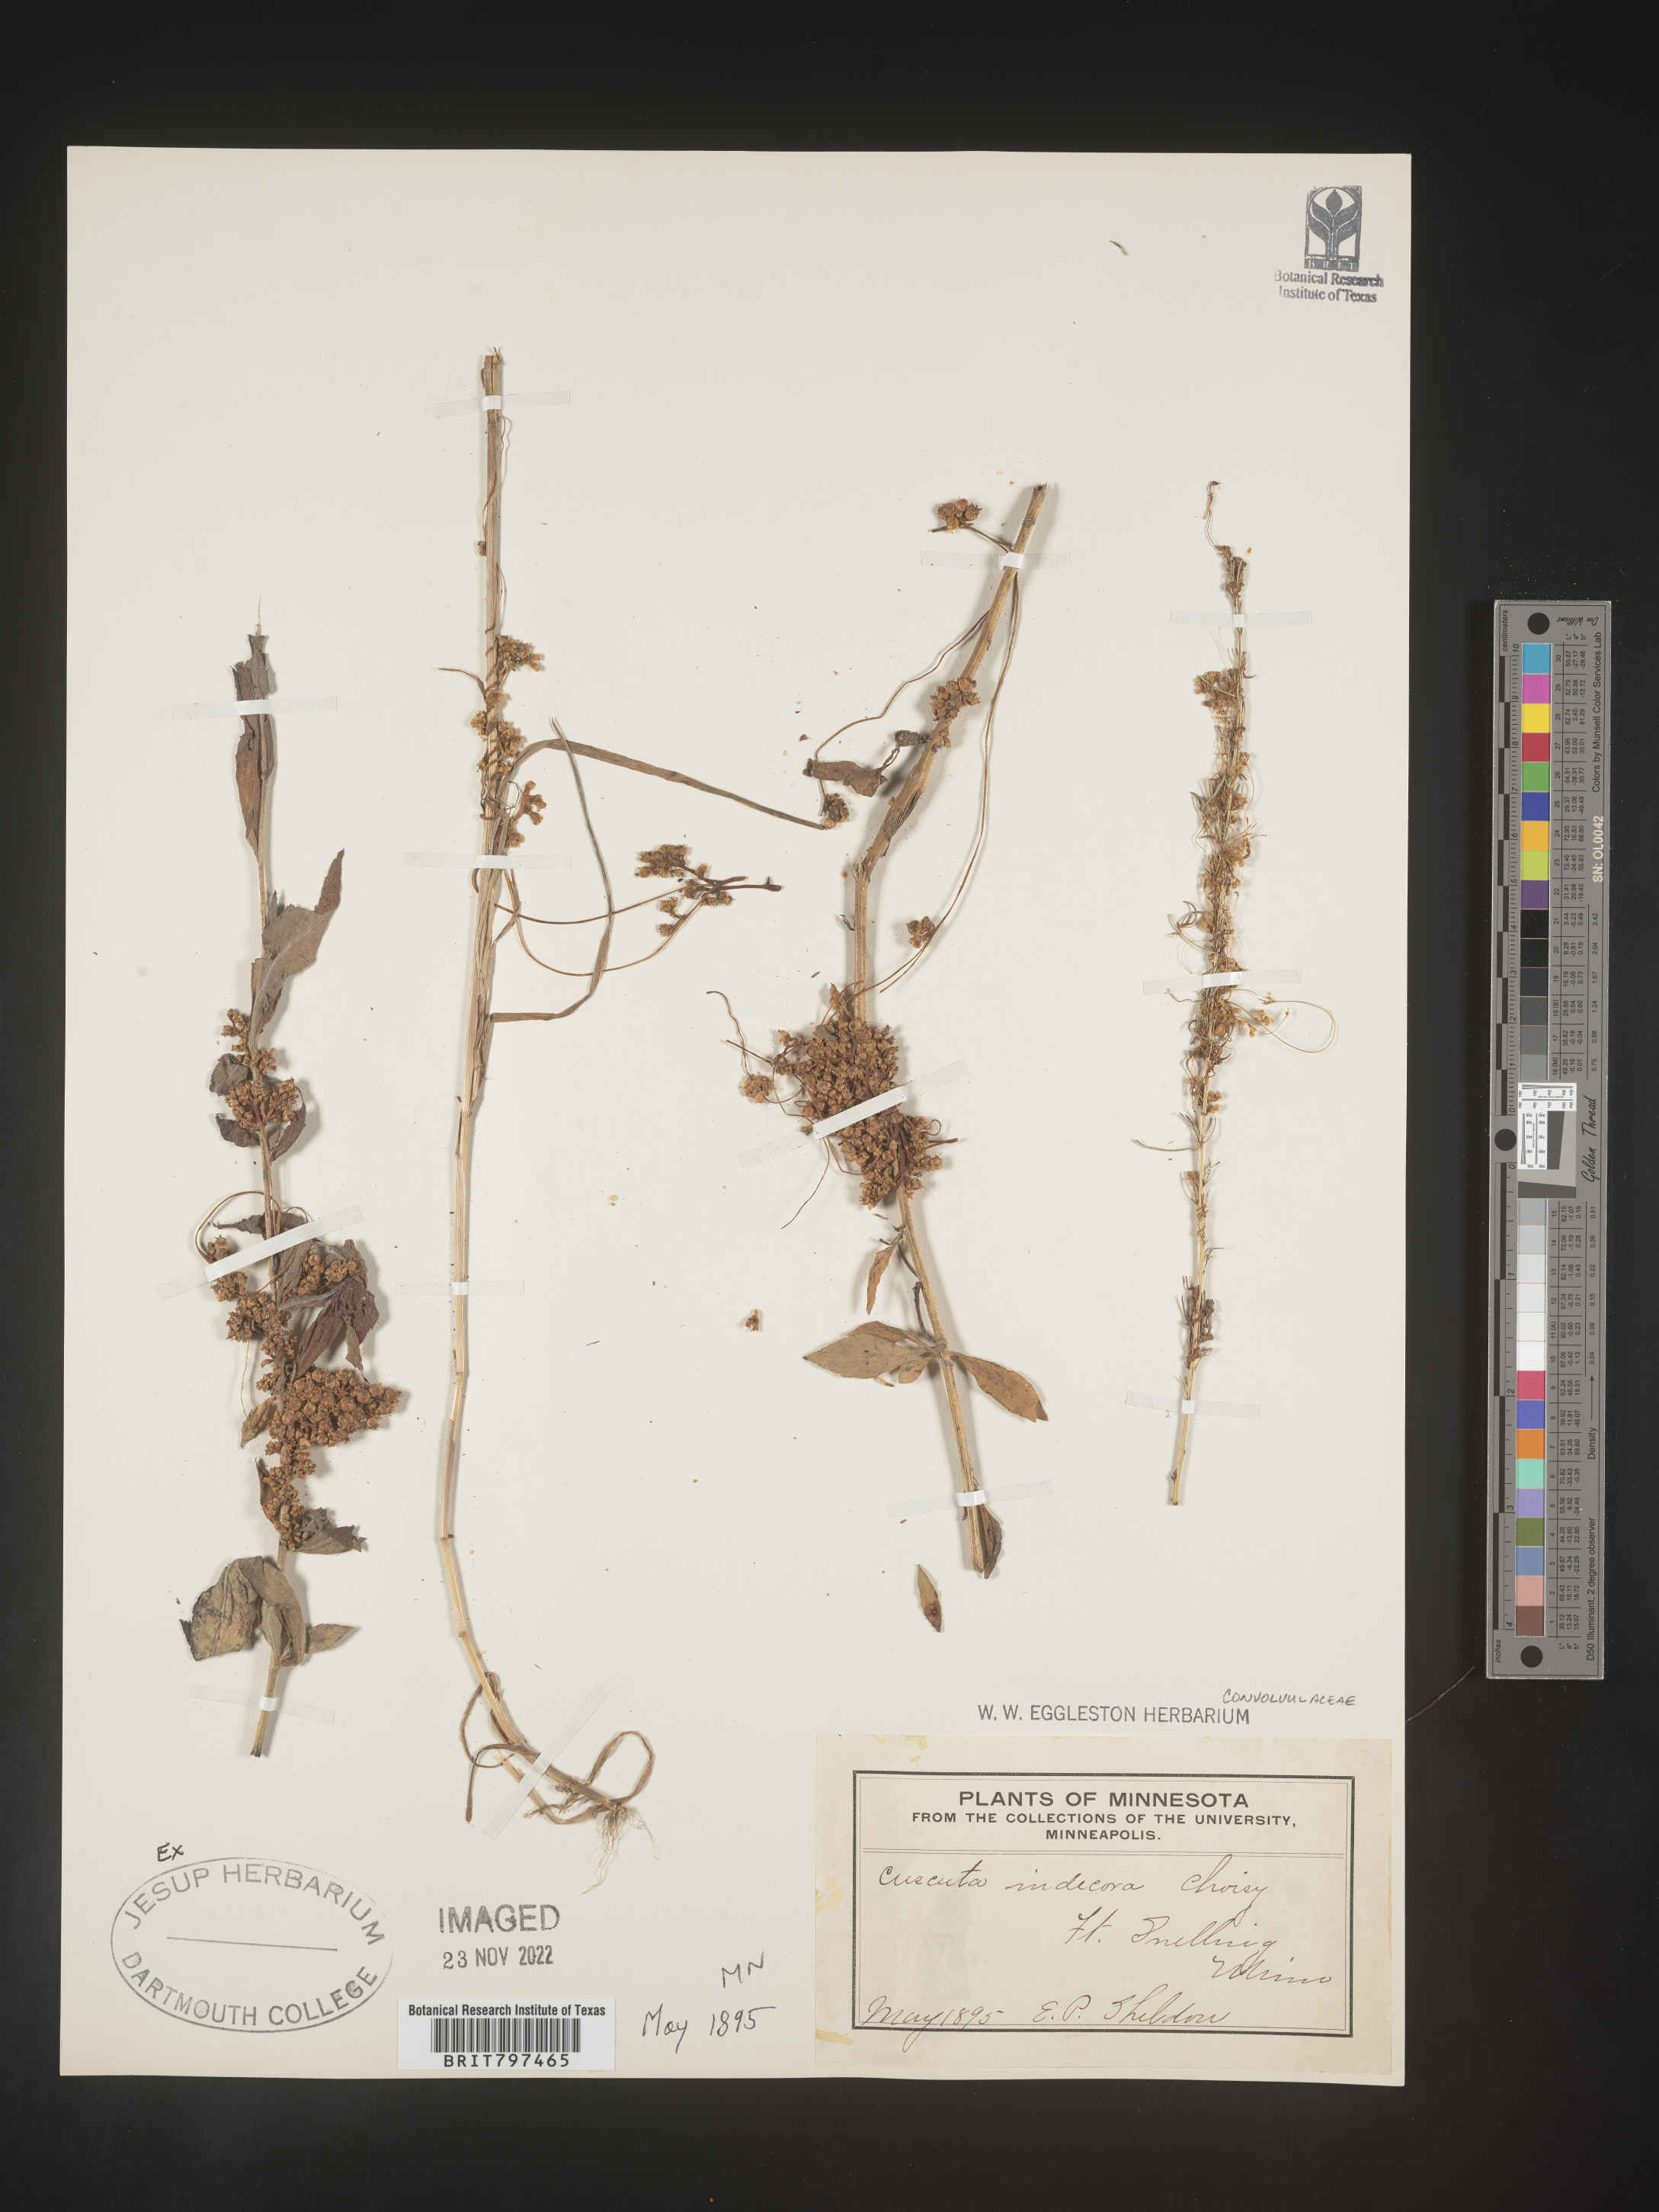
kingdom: Plantae
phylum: Tracheophyta
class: Magnoliopsida
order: Solanales
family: Convolvulaceae
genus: Cuscuta
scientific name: Cuscuta indecora
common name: Large-seed dodder
